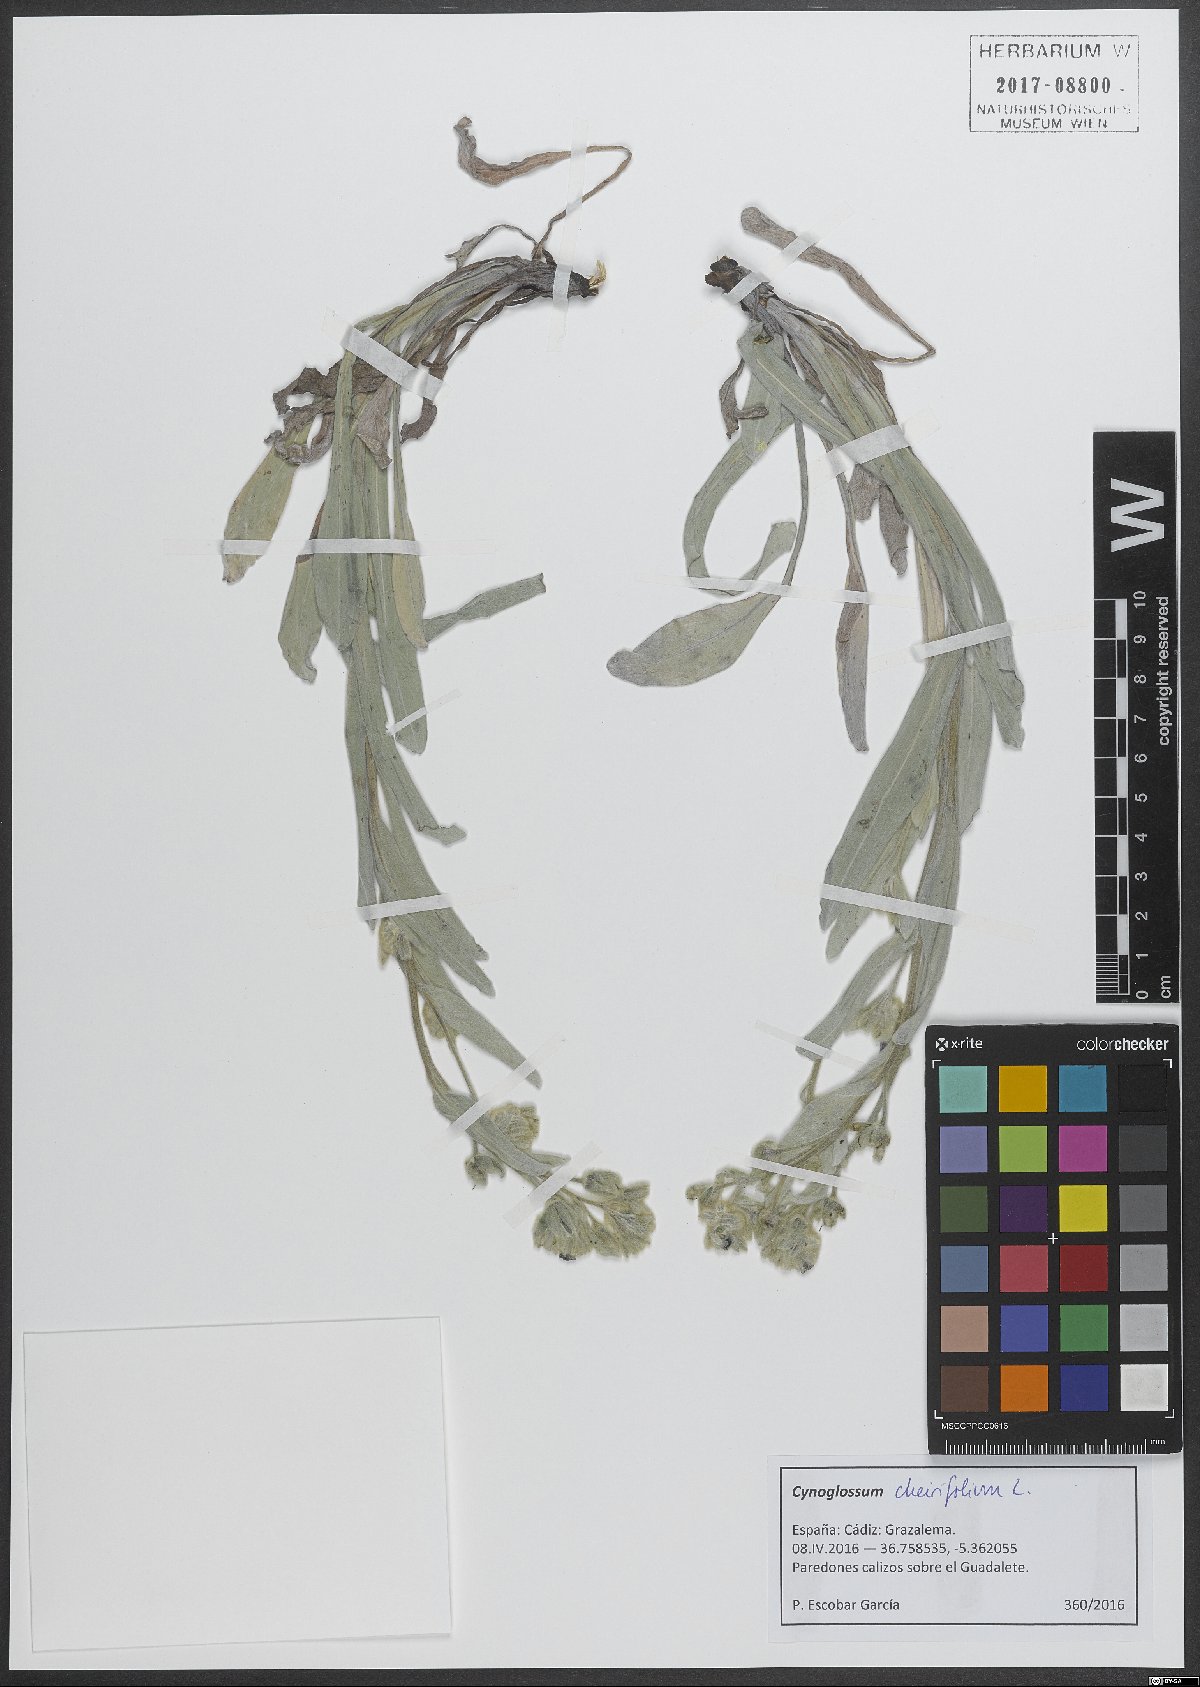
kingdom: Plantae
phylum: Tracheophyta
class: Magnoliopsida
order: Boraginales
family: Boraginaceae
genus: Pardoglossum
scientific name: Pardoglossum cheirifolium
